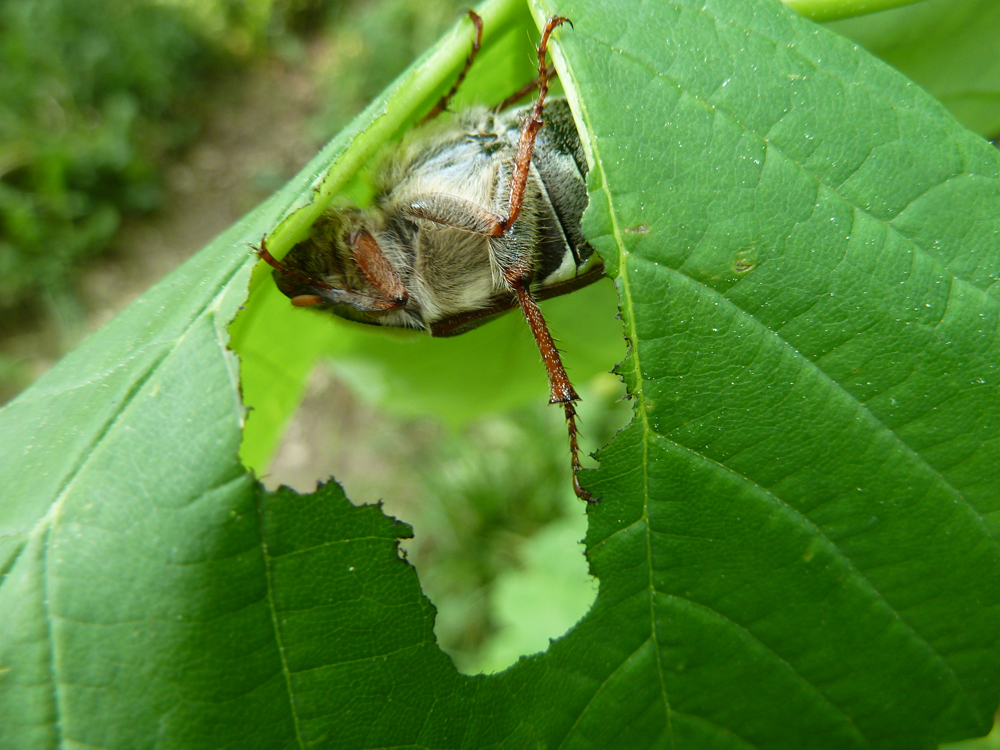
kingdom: Animalia
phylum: Arthropoda
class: Insecta
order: Coleoptera
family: Scarabaeidae
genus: Melolontha
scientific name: Melolontha melolontha
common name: Cockchafer maybeetle
